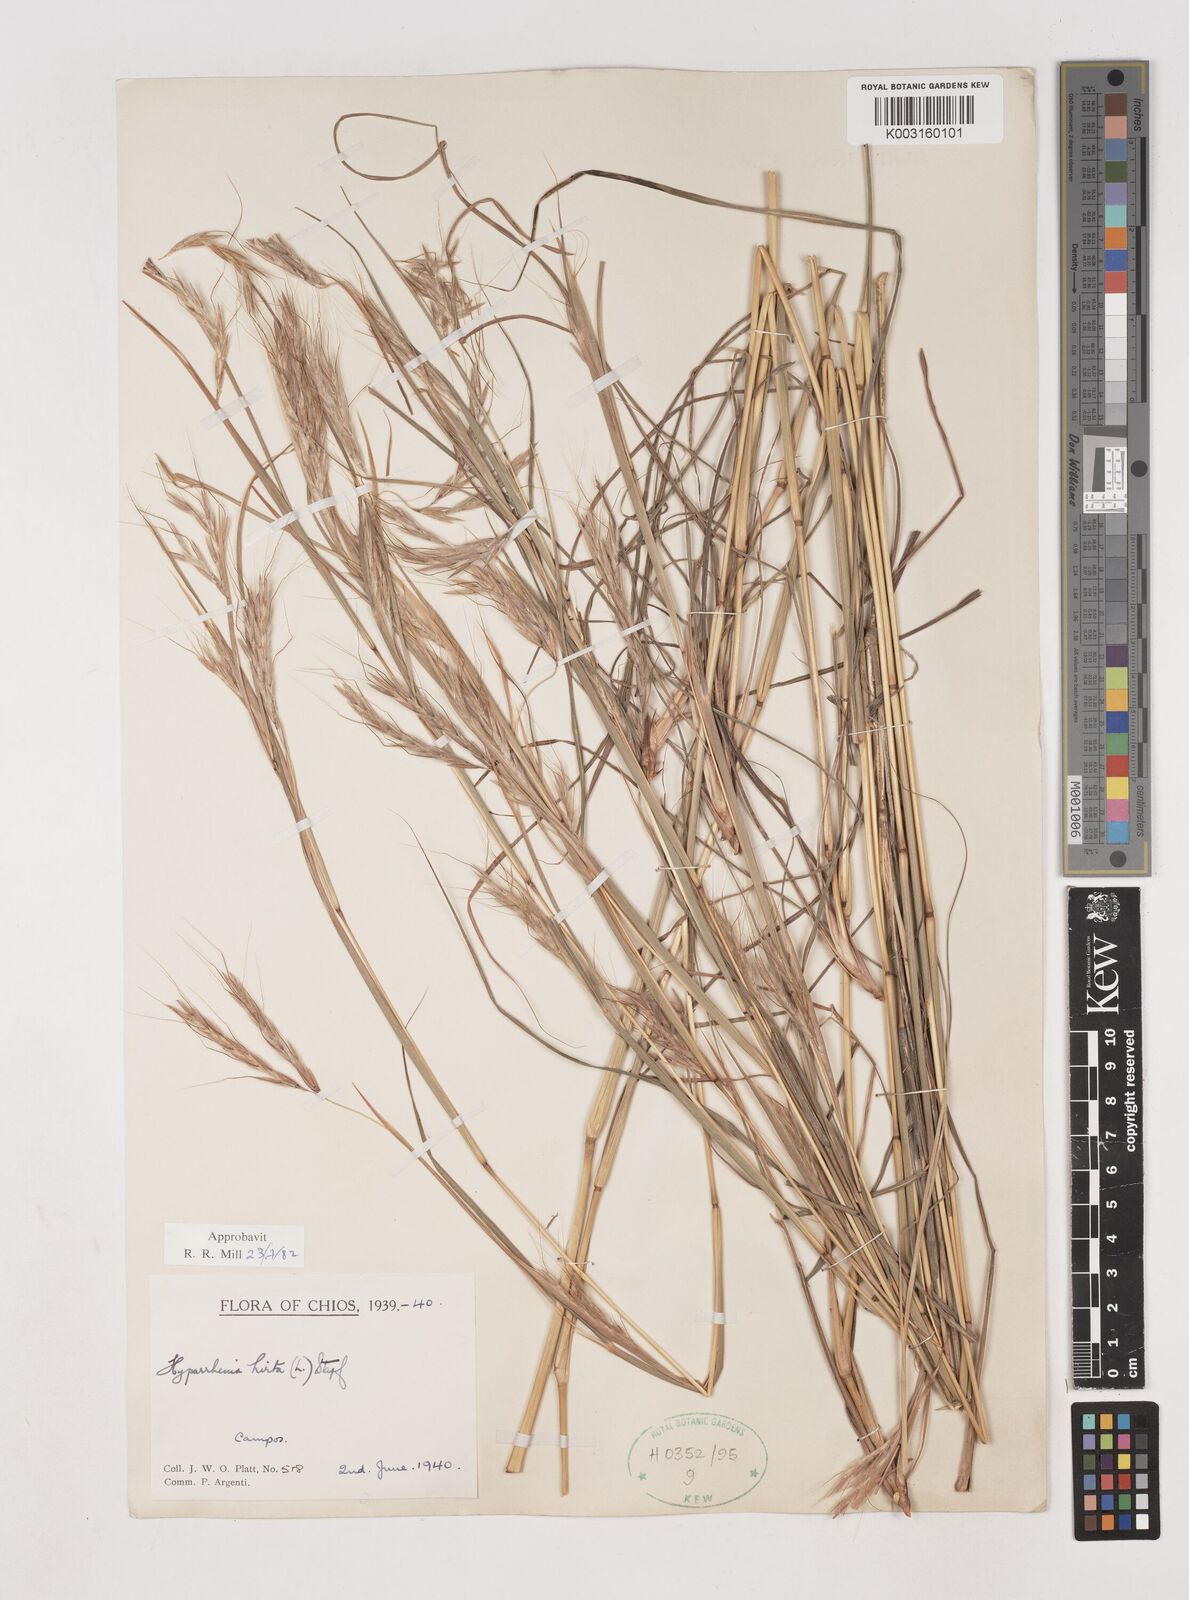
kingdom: Plantae
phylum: Tracheophyta
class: Liliopsida
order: Poales
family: Poaceae
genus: Hyparrhenia
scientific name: Hyparrhenia hirta
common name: Thatching grass
